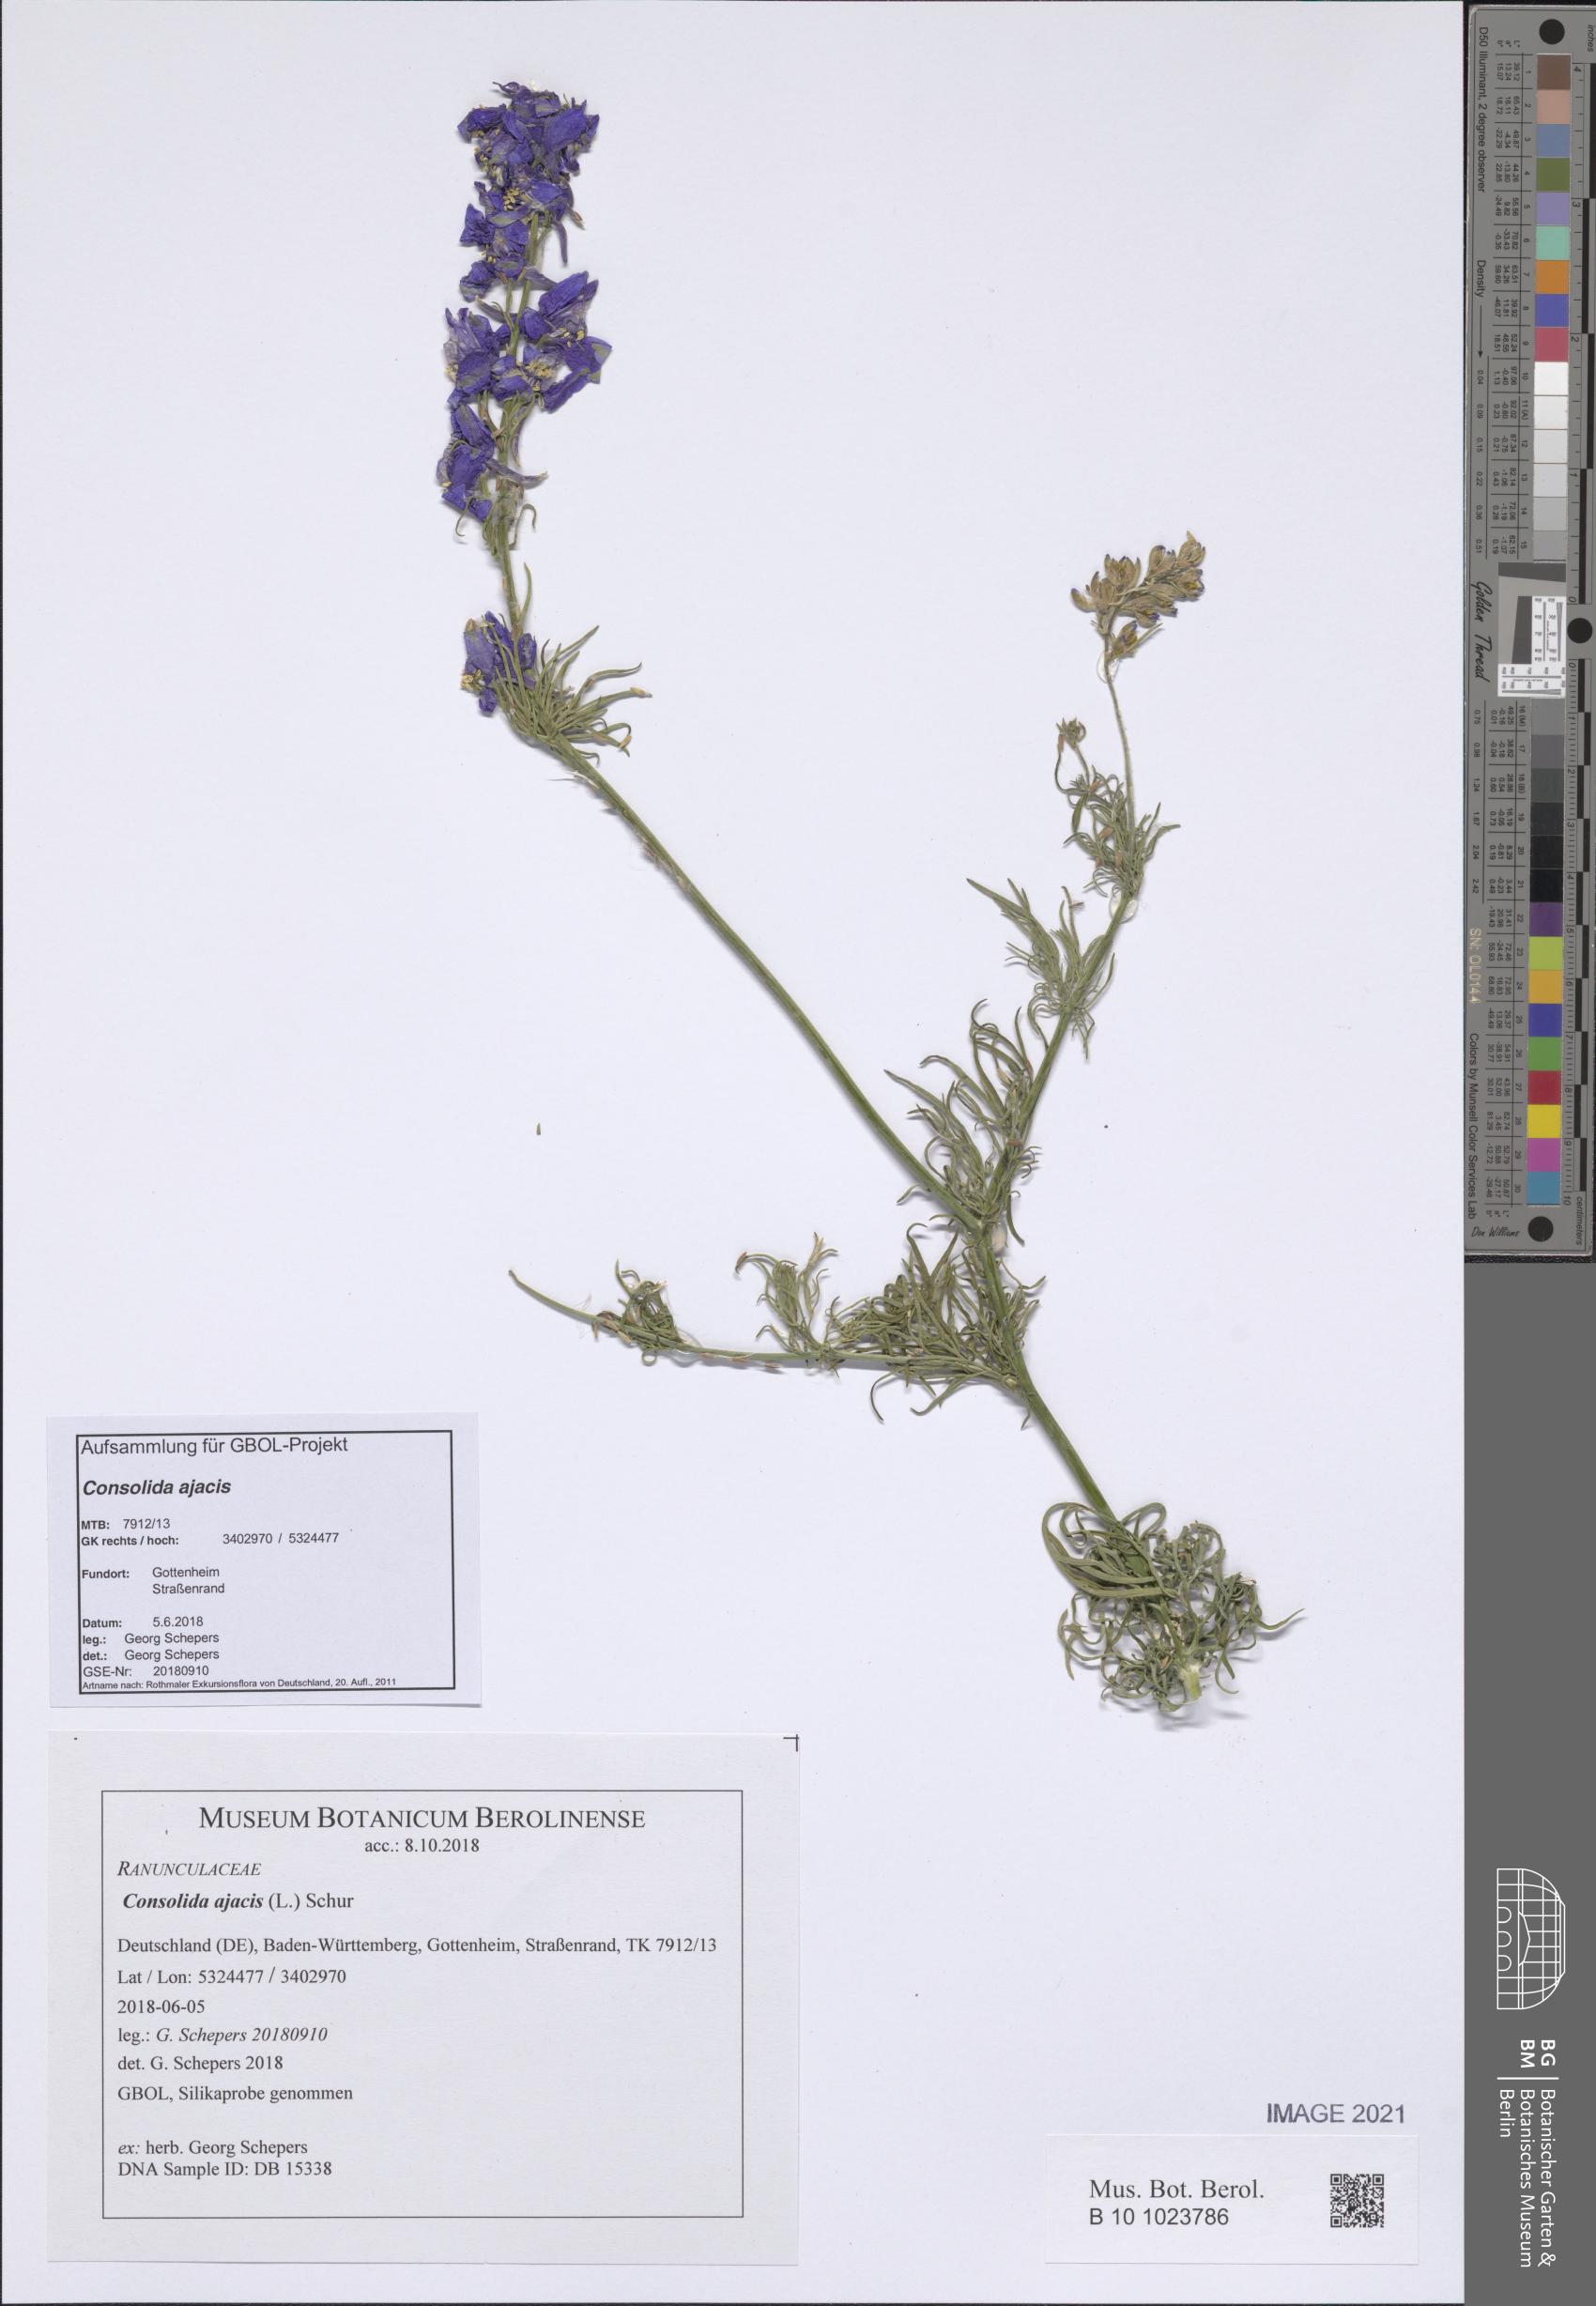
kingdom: Plantae
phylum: Tracheophyta
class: Magnoliopsida
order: Ranunculales
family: Ranunculaceae
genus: Delphinium
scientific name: Delphinium ajacis
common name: Doubtful knight's-spur
